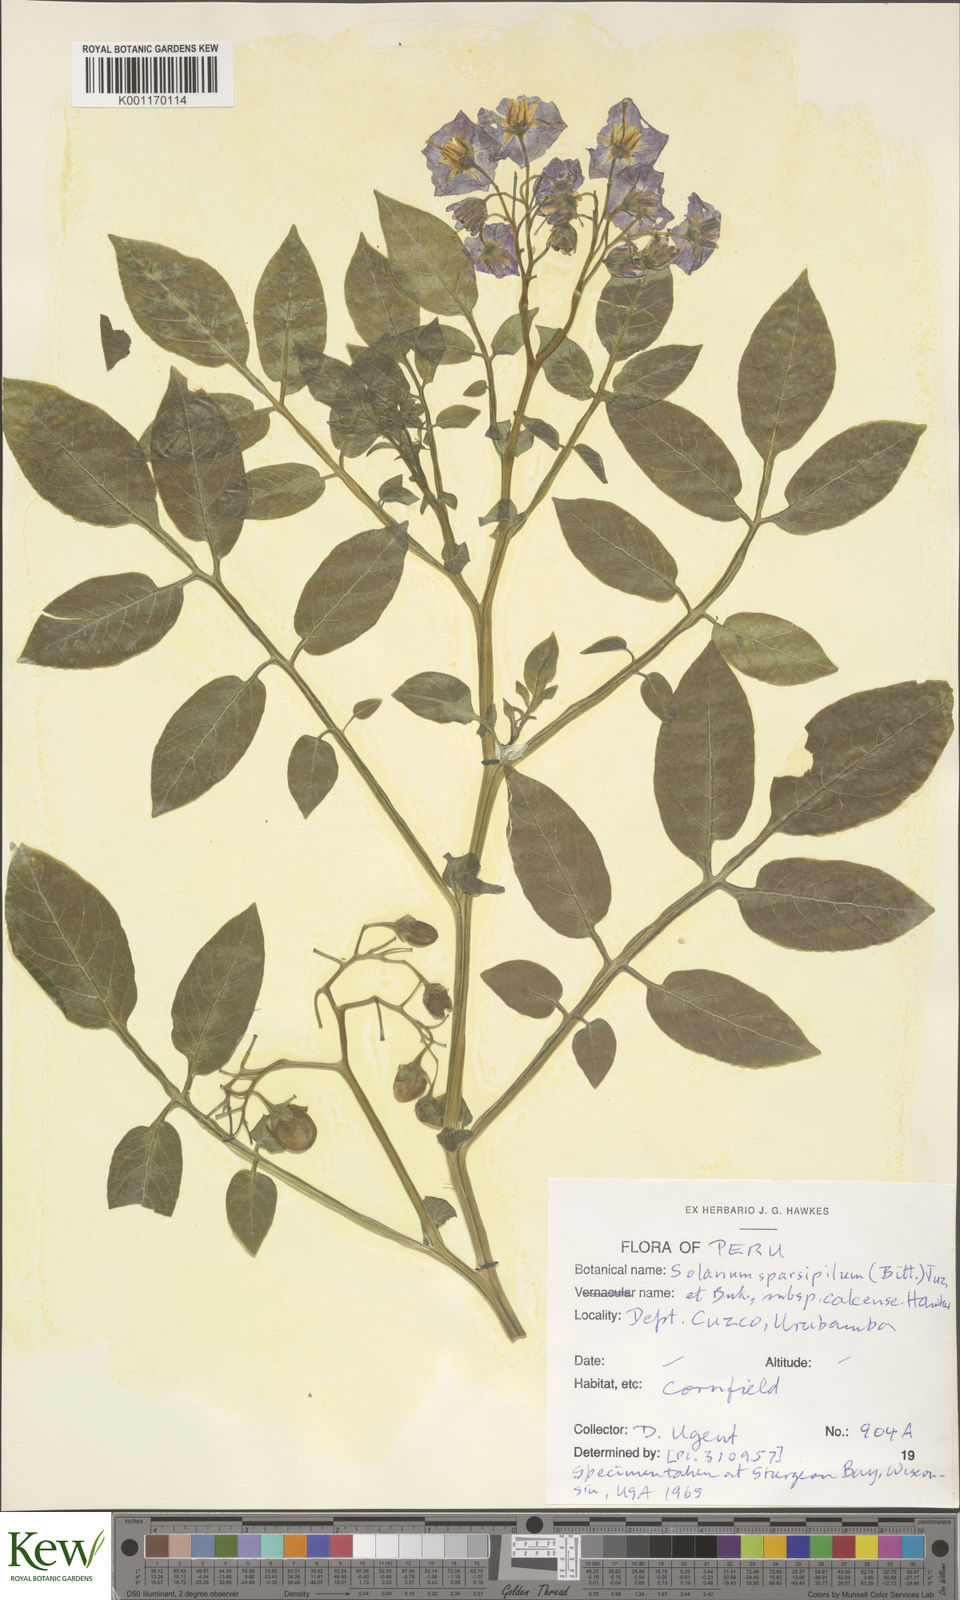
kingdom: Plantae
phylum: Tracheophyta
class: Magnoliopsida
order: Solanales
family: Solanaceae
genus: Solanum
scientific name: Solanum brevicaule
